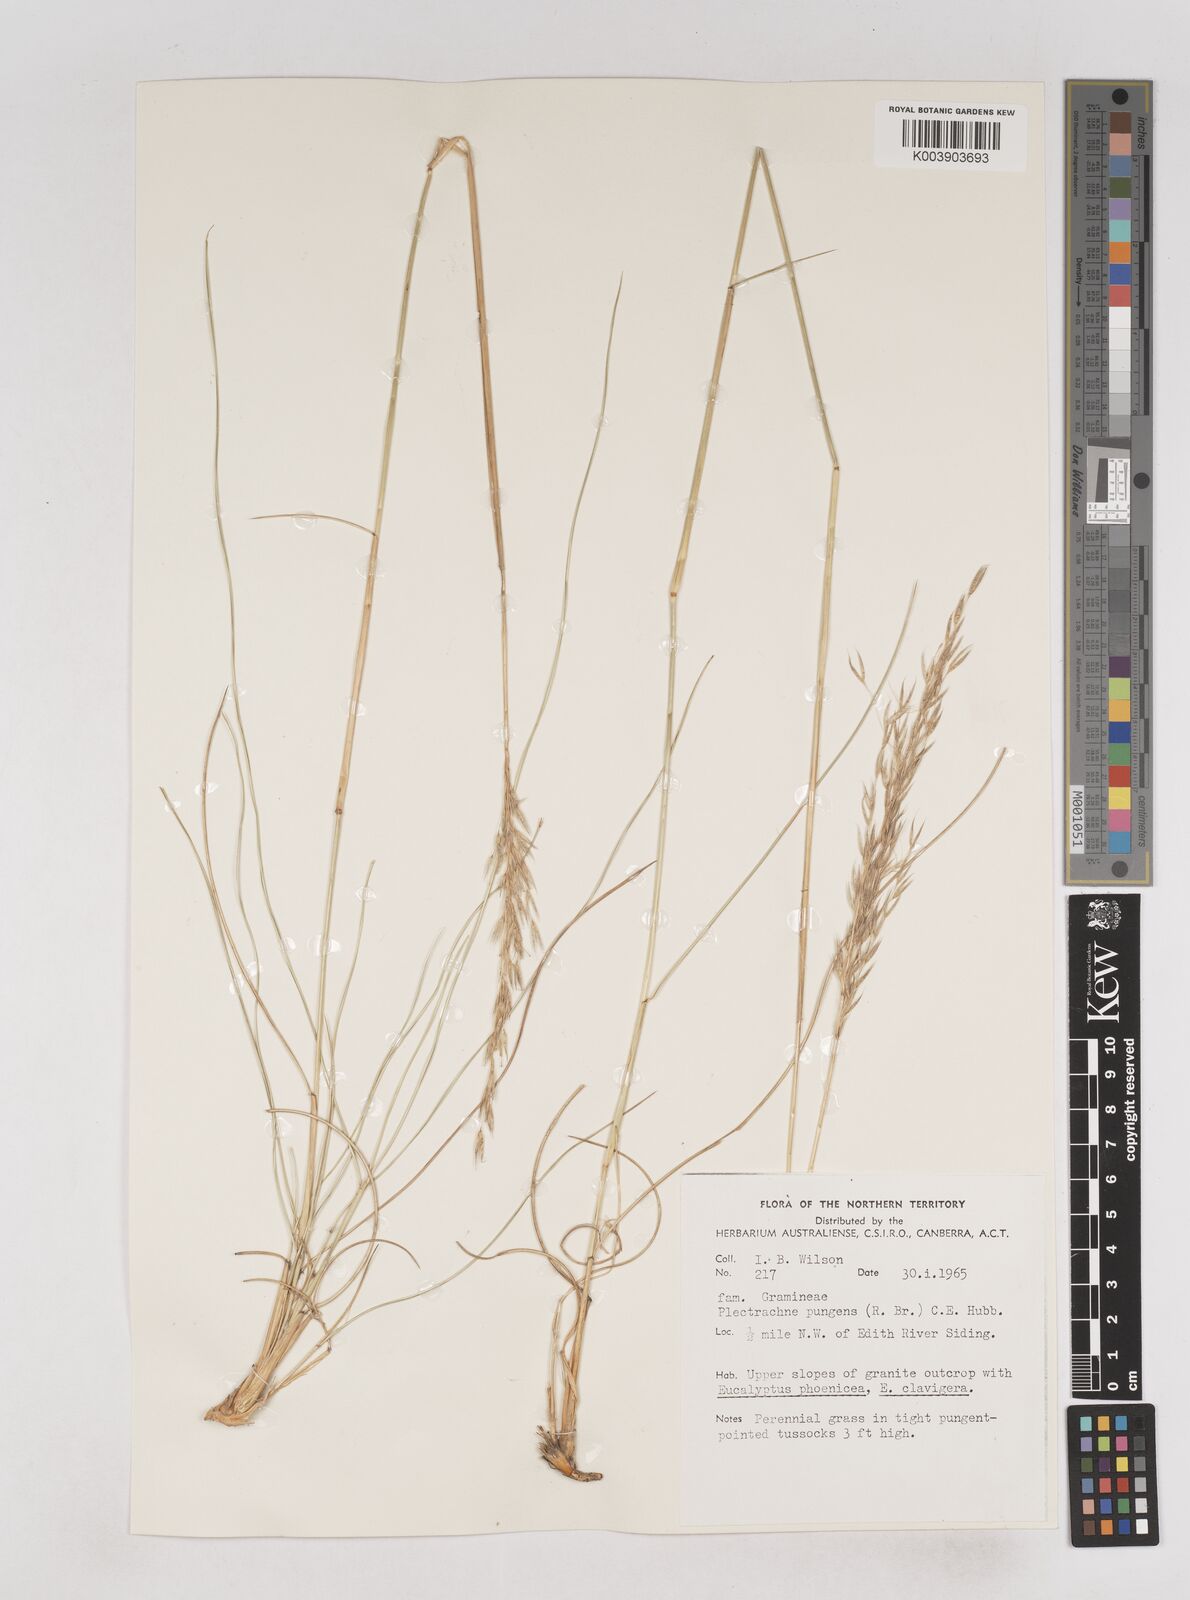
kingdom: Plantae
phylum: Tracheophyta
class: Liliopsida
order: Poales
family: Poaceae
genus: Triodia
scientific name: Triodia bitextura
